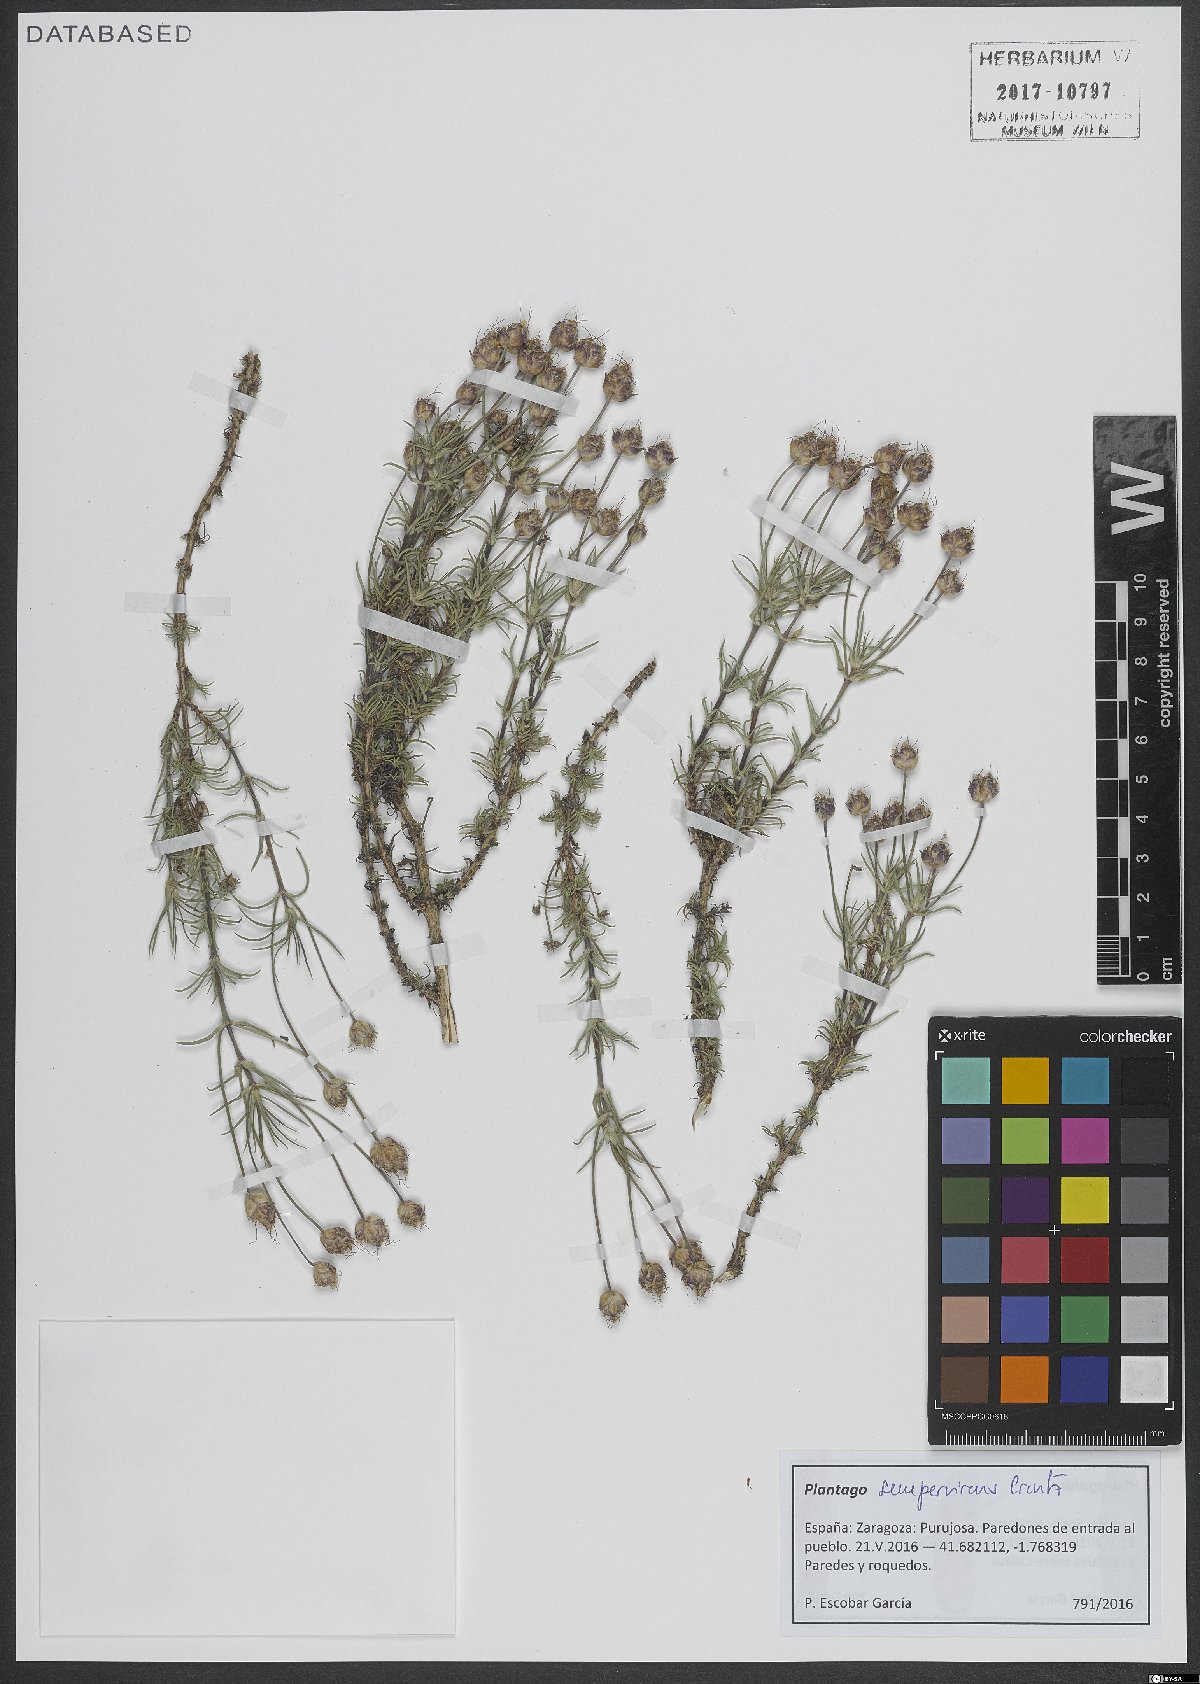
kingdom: Plantae
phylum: Tracheophyta
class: Magnoliopsida
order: Lamiales
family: Plantaginaceae
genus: Plantago
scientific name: Plantago sempervirens
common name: Shrubby plantain
